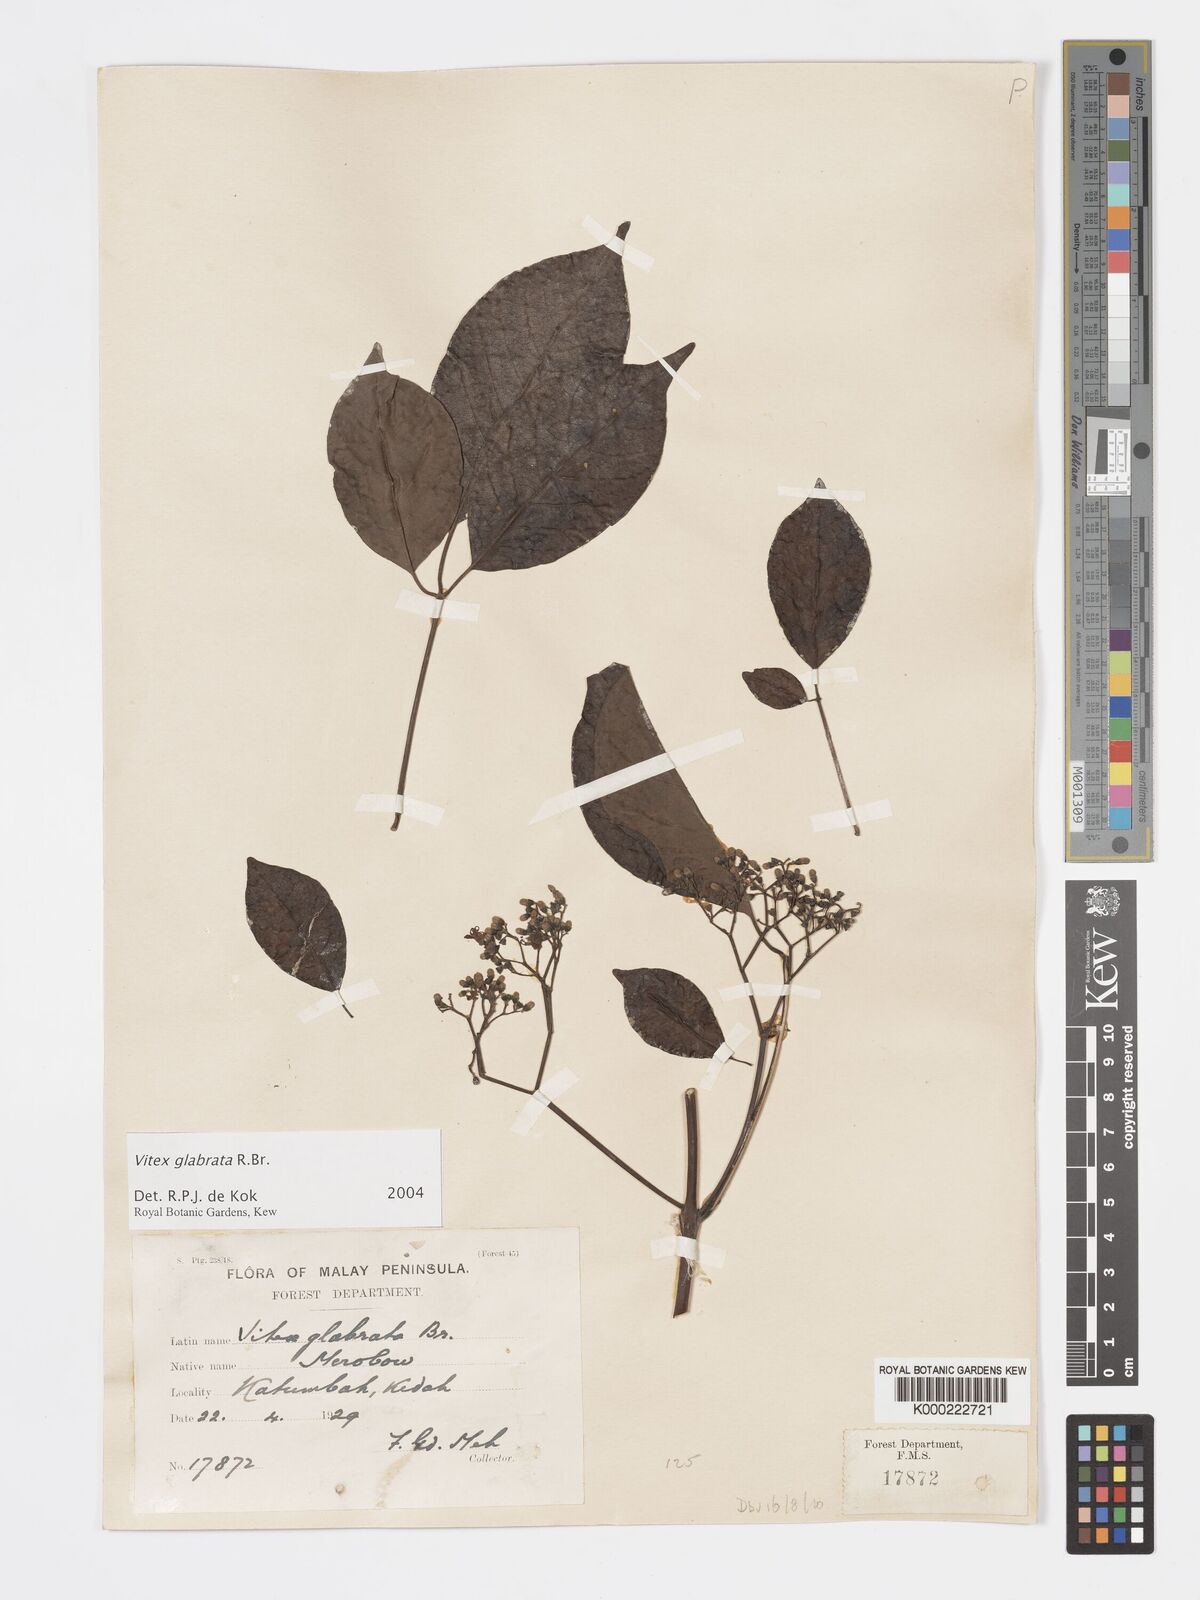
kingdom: Plantae
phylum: Tracheophyta
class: Magnoliopsida
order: Lamiales
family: Lamiaceae
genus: Vitex
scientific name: Vitex glabrata
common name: Smooth chastetree
